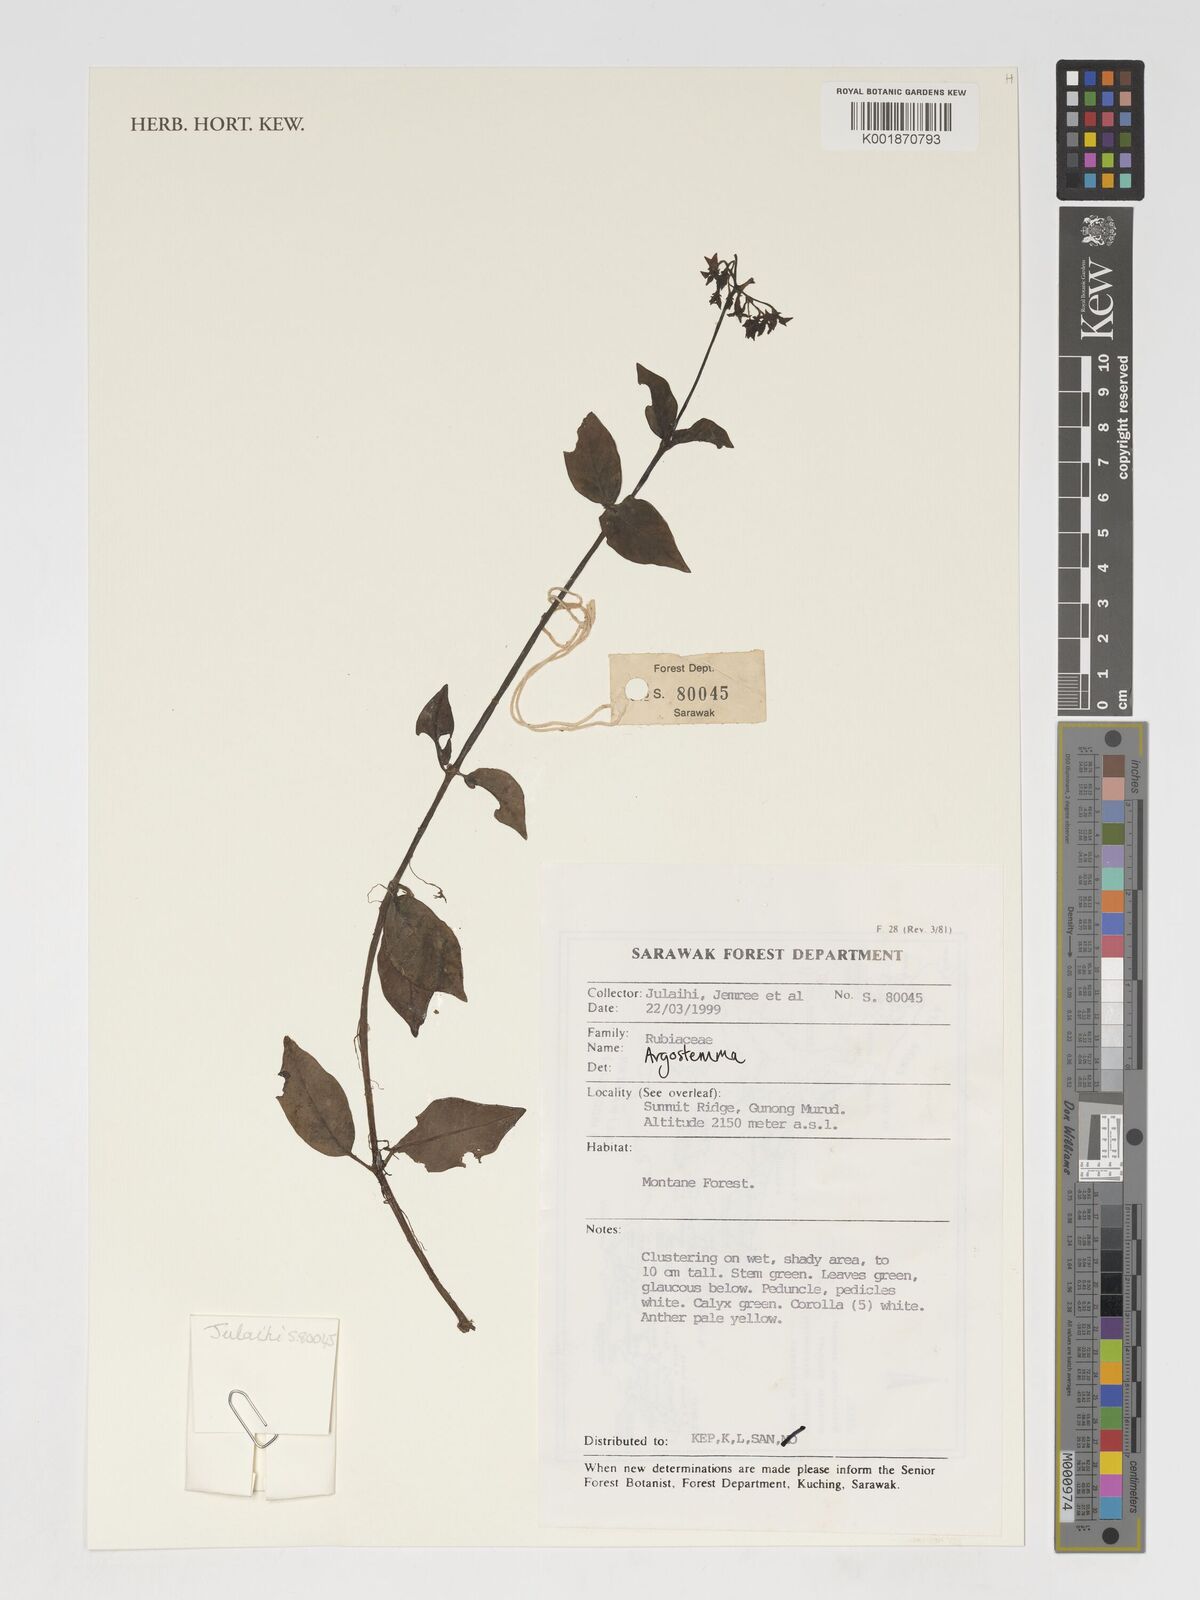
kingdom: Plantae
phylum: Tracheophyta
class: Magnoliopsida
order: Gentianales
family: Rubiaceae
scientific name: Rubiaceae
